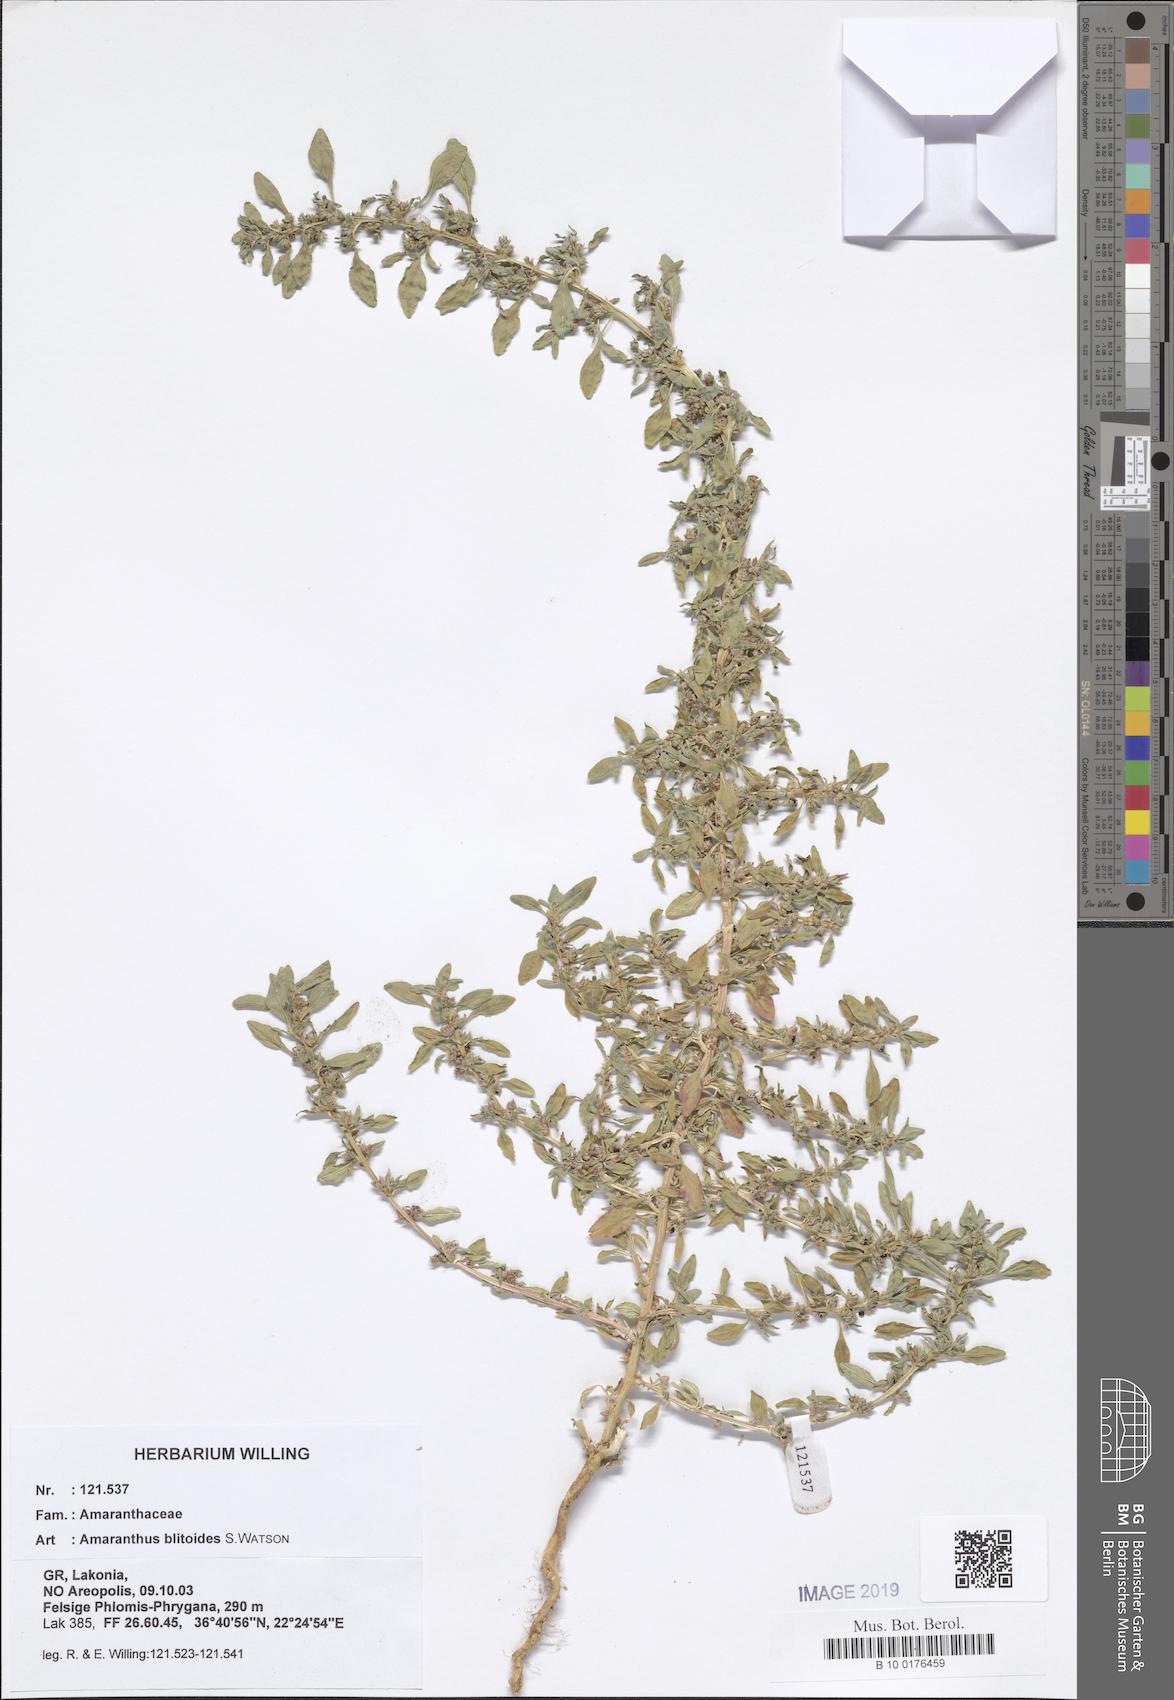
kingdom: Plantae
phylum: Tracheophyta
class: Magnoliopsida
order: Caryophyllales
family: Amaranthaceae
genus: Amaranthus
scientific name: Amaranthus blitoides
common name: Prostrate pigweed
